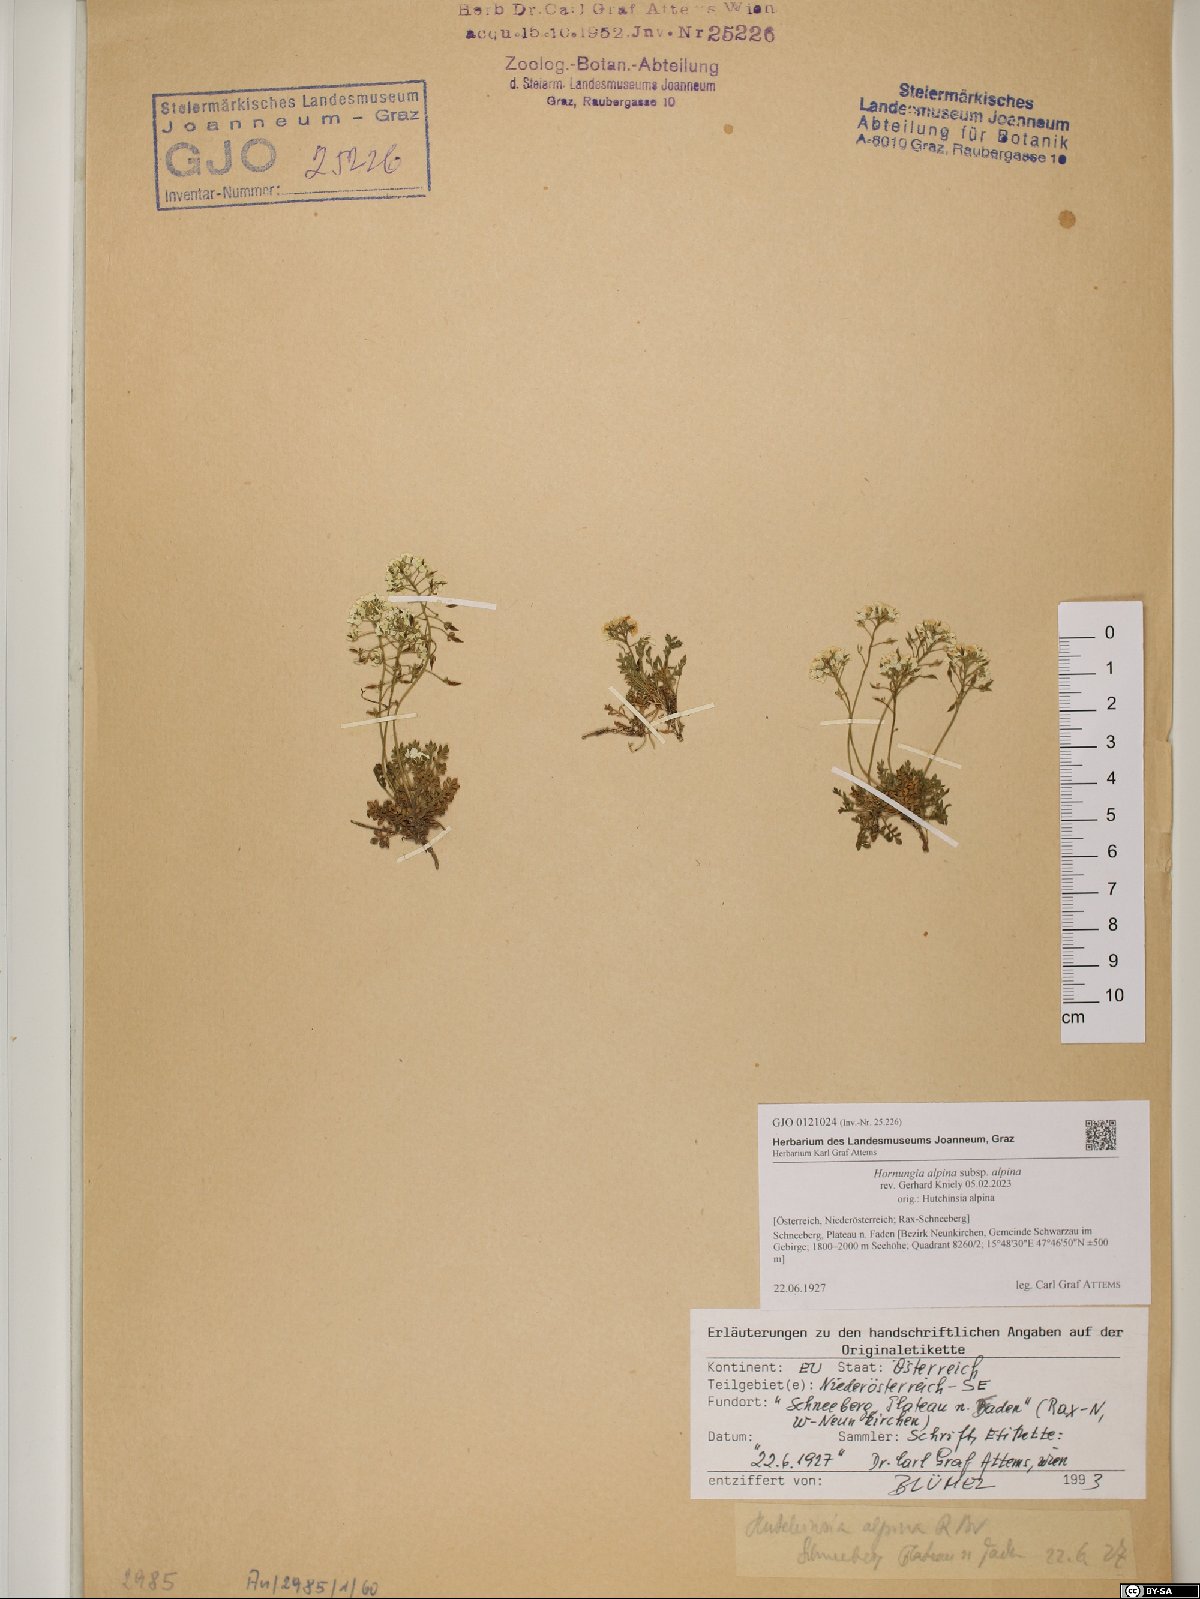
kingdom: Plantae
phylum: Tracheophyta
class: Magnoliopsida
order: Brassicales
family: Brassicaceae
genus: Hornungia
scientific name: Hornungia alpina
